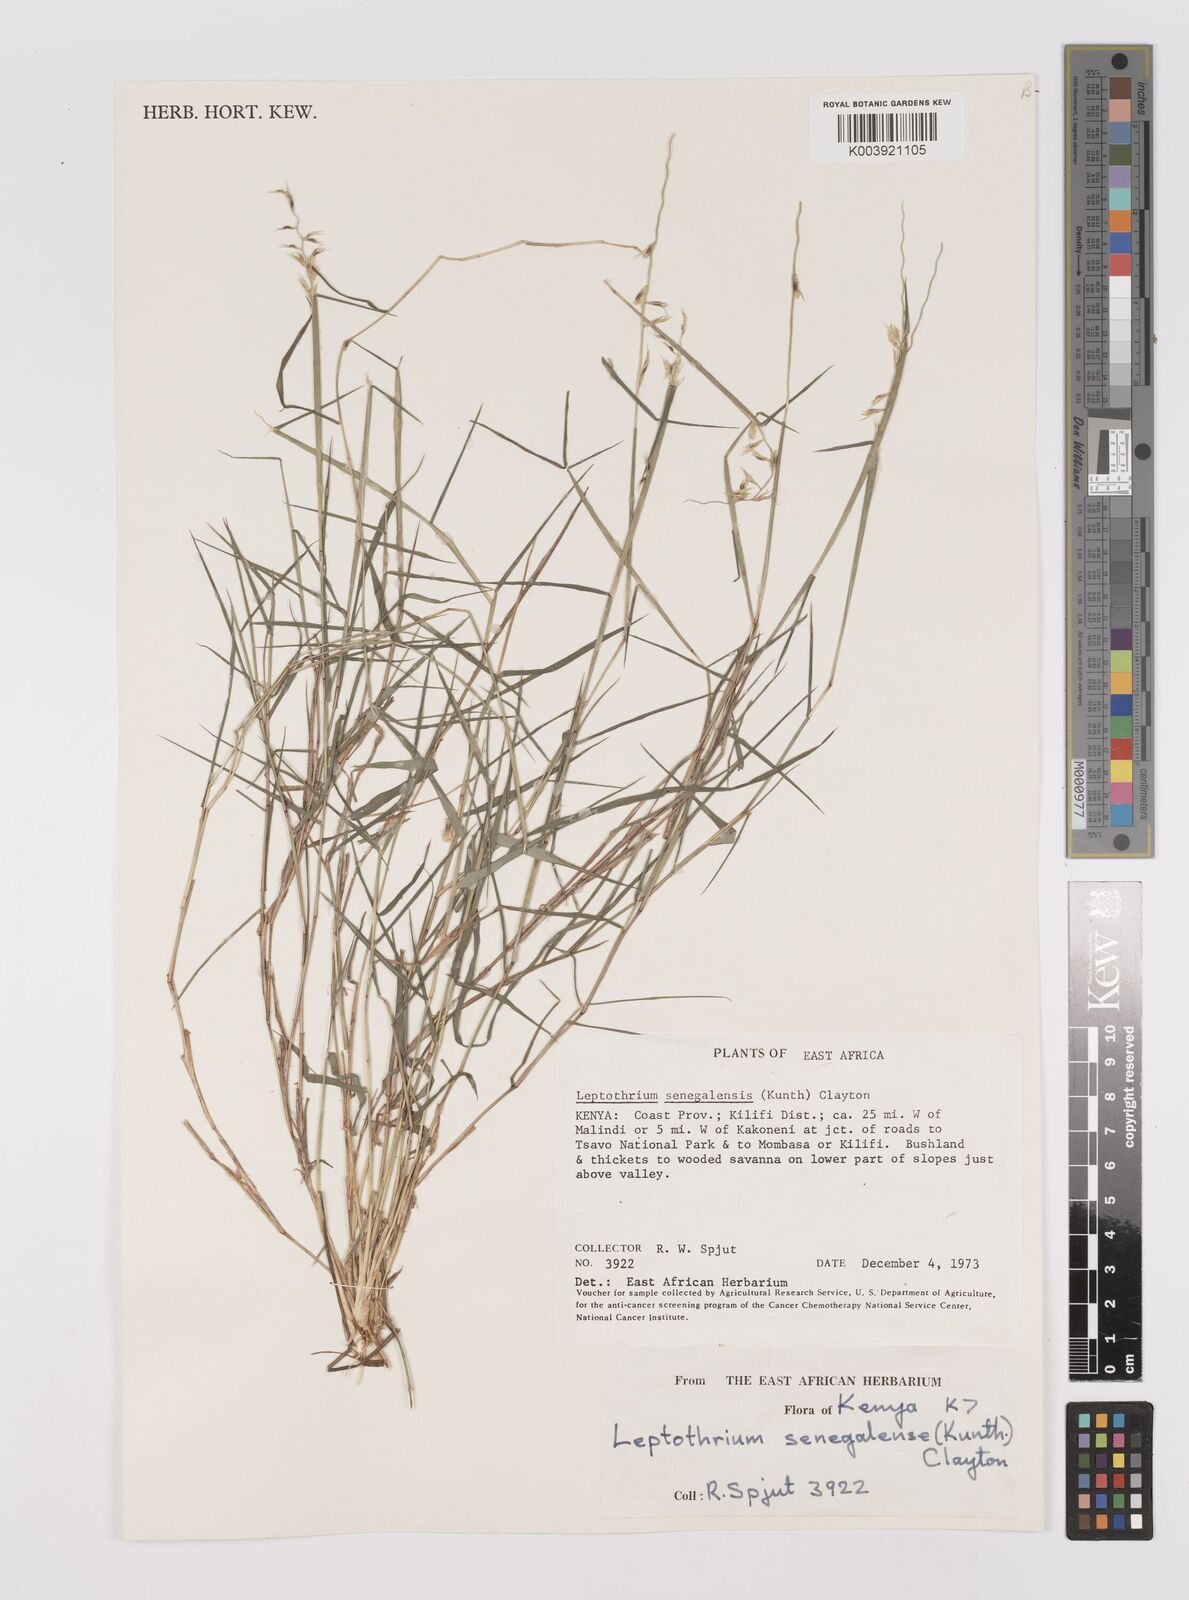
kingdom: Plantae
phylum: Tracheophyta
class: Liliopsida
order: Poales
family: Poaceae
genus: Leptothrium
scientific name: Leptothrium senegalense
